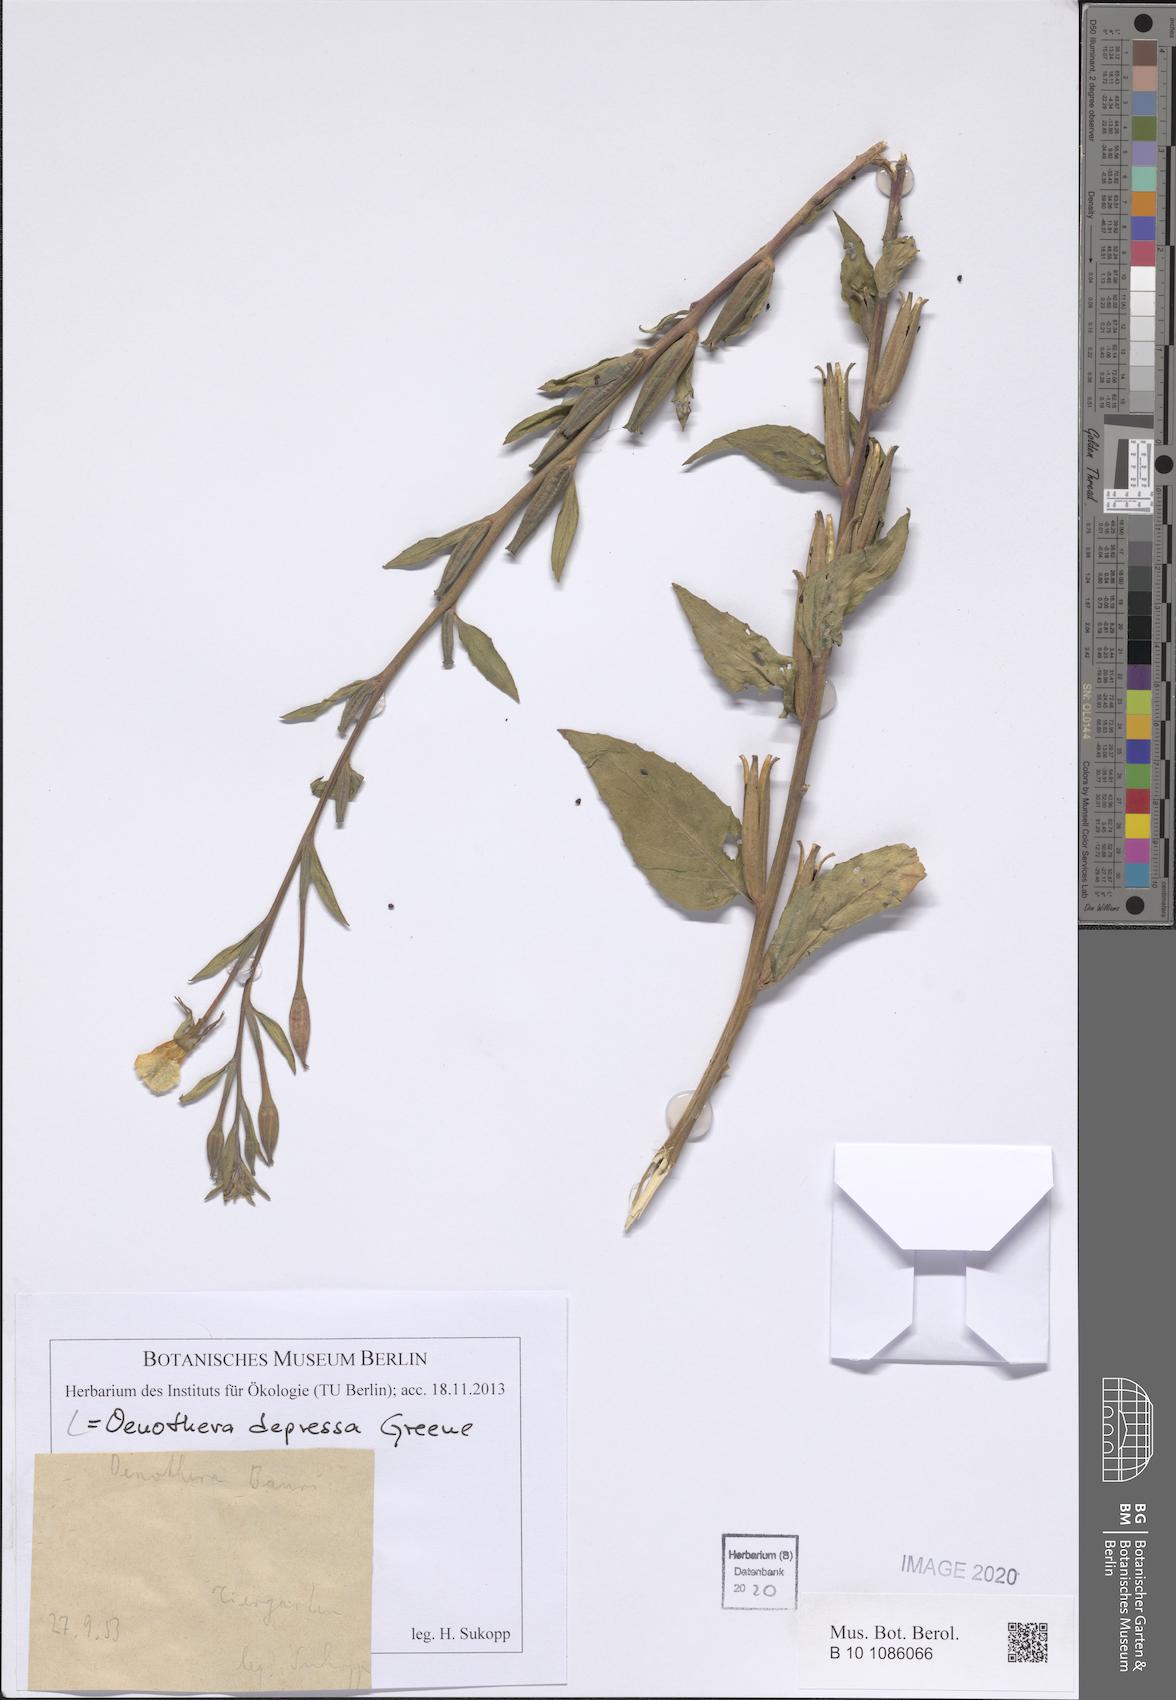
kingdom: Plantae
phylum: Tracheophyta
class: Magnoliopsida
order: Myrtales
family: Onagraceae
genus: Oenothera
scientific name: Oenothera villosa
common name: Hairy evening-primrose
